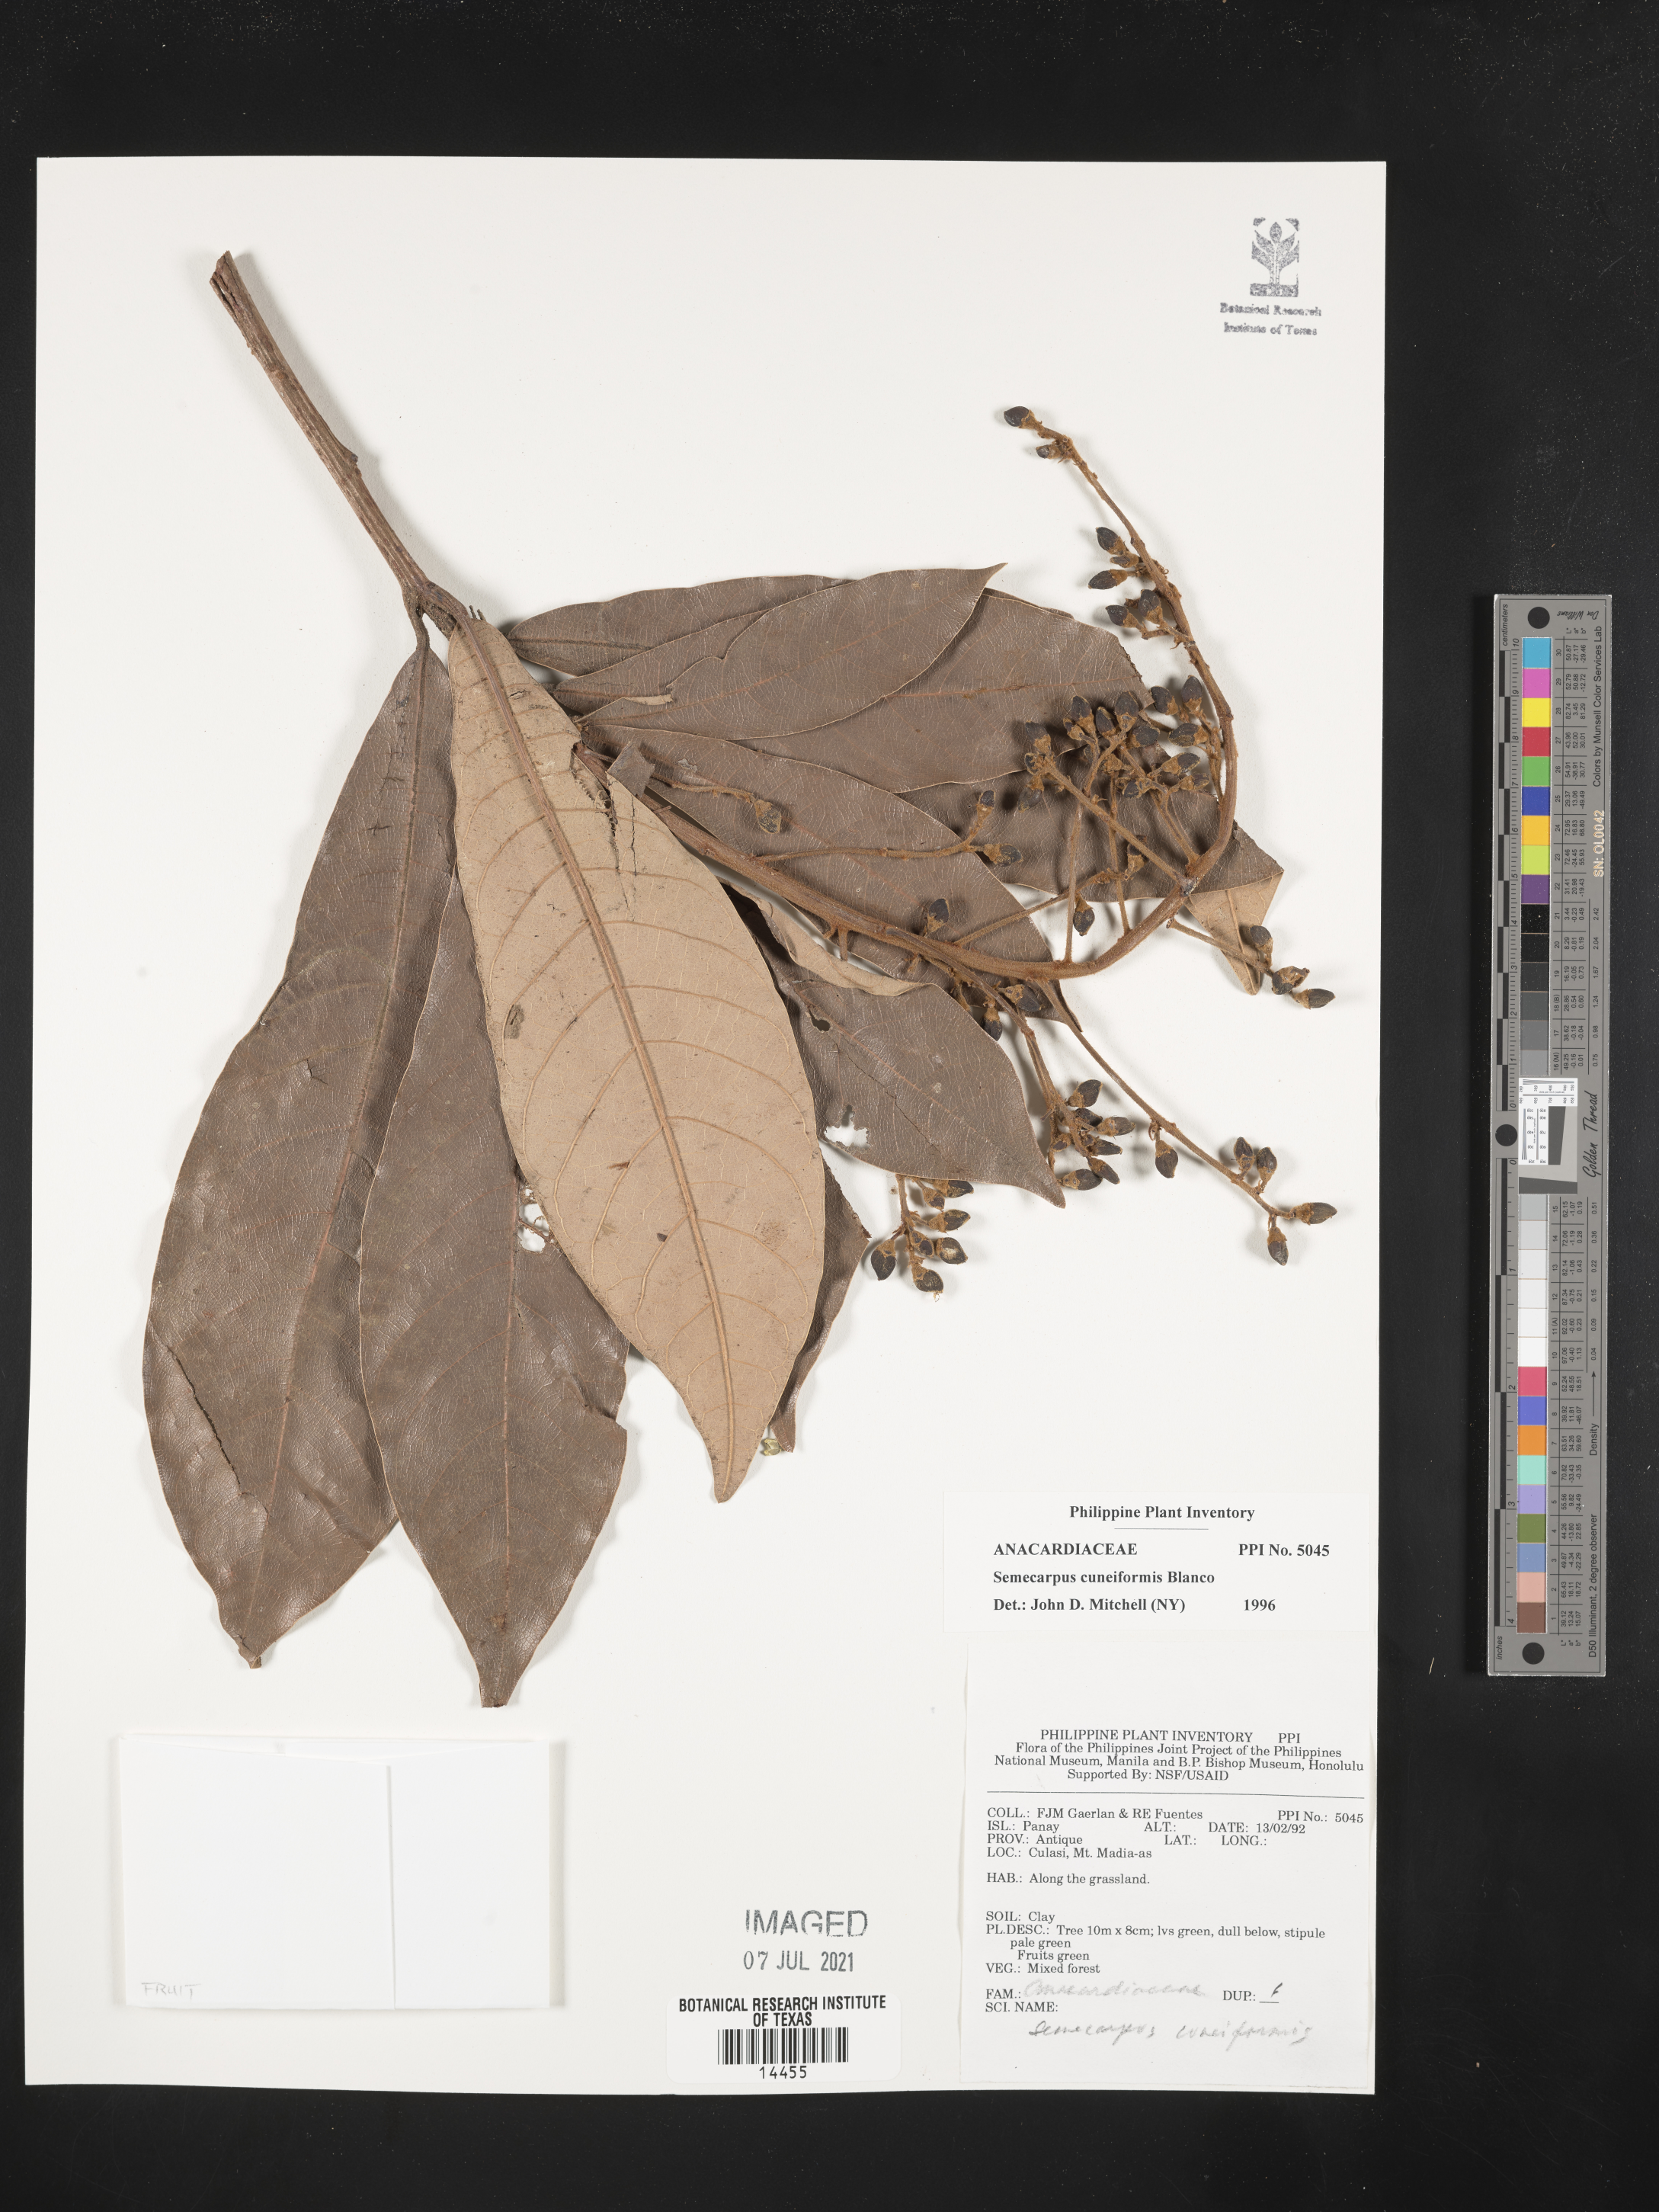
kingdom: Plantae
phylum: Tracheophyta
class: Magnoliopsida
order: Sapindales
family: Anacardiaceae
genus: Semecarpus
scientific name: Semecarpus cuneiformis
